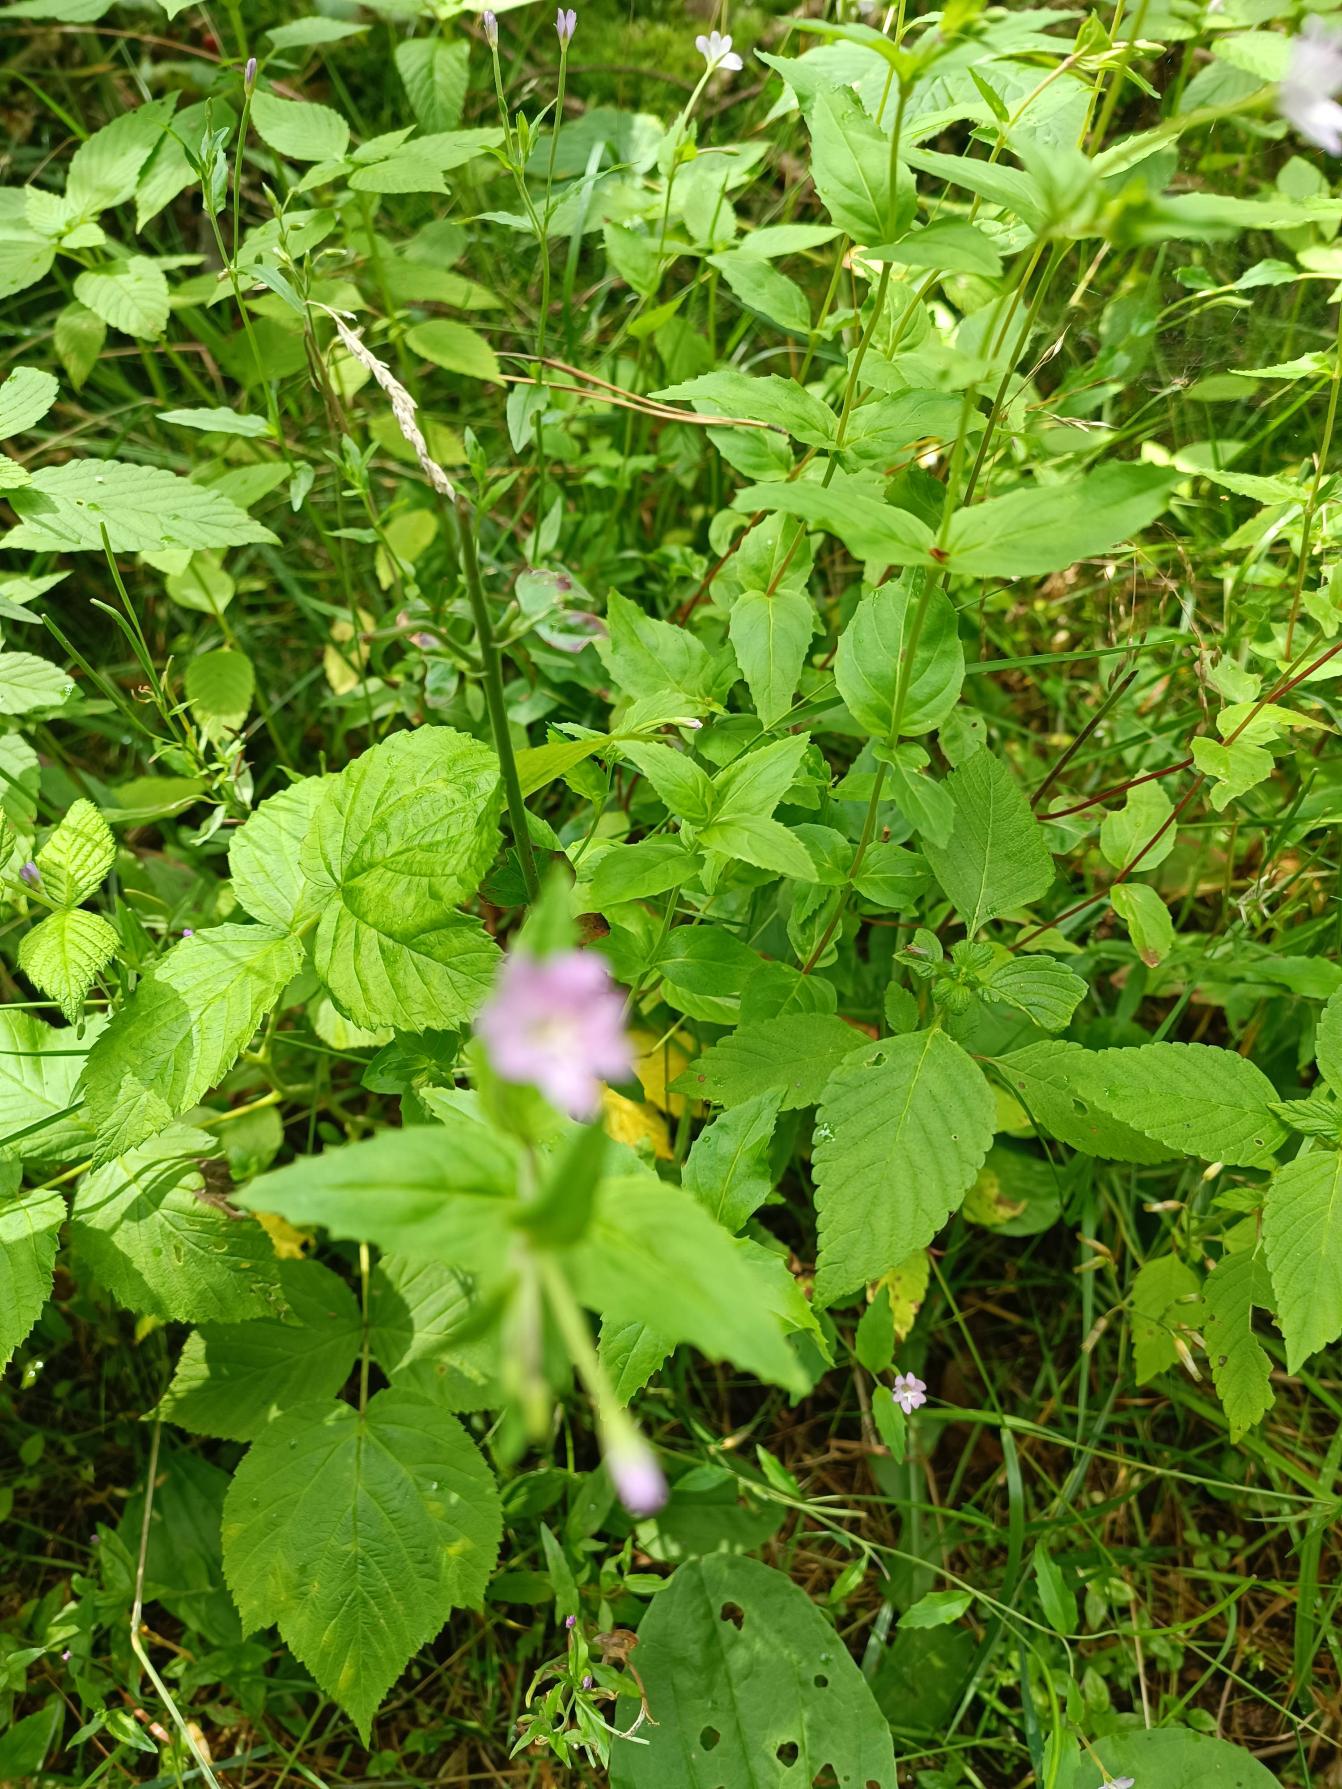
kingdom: Plantae
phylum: Tracheophyta
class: Magnoliopsida
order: Myrtales
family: Onagraceae
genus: Epilobium
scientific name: Epilobium montanum
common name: Glat dueurt
